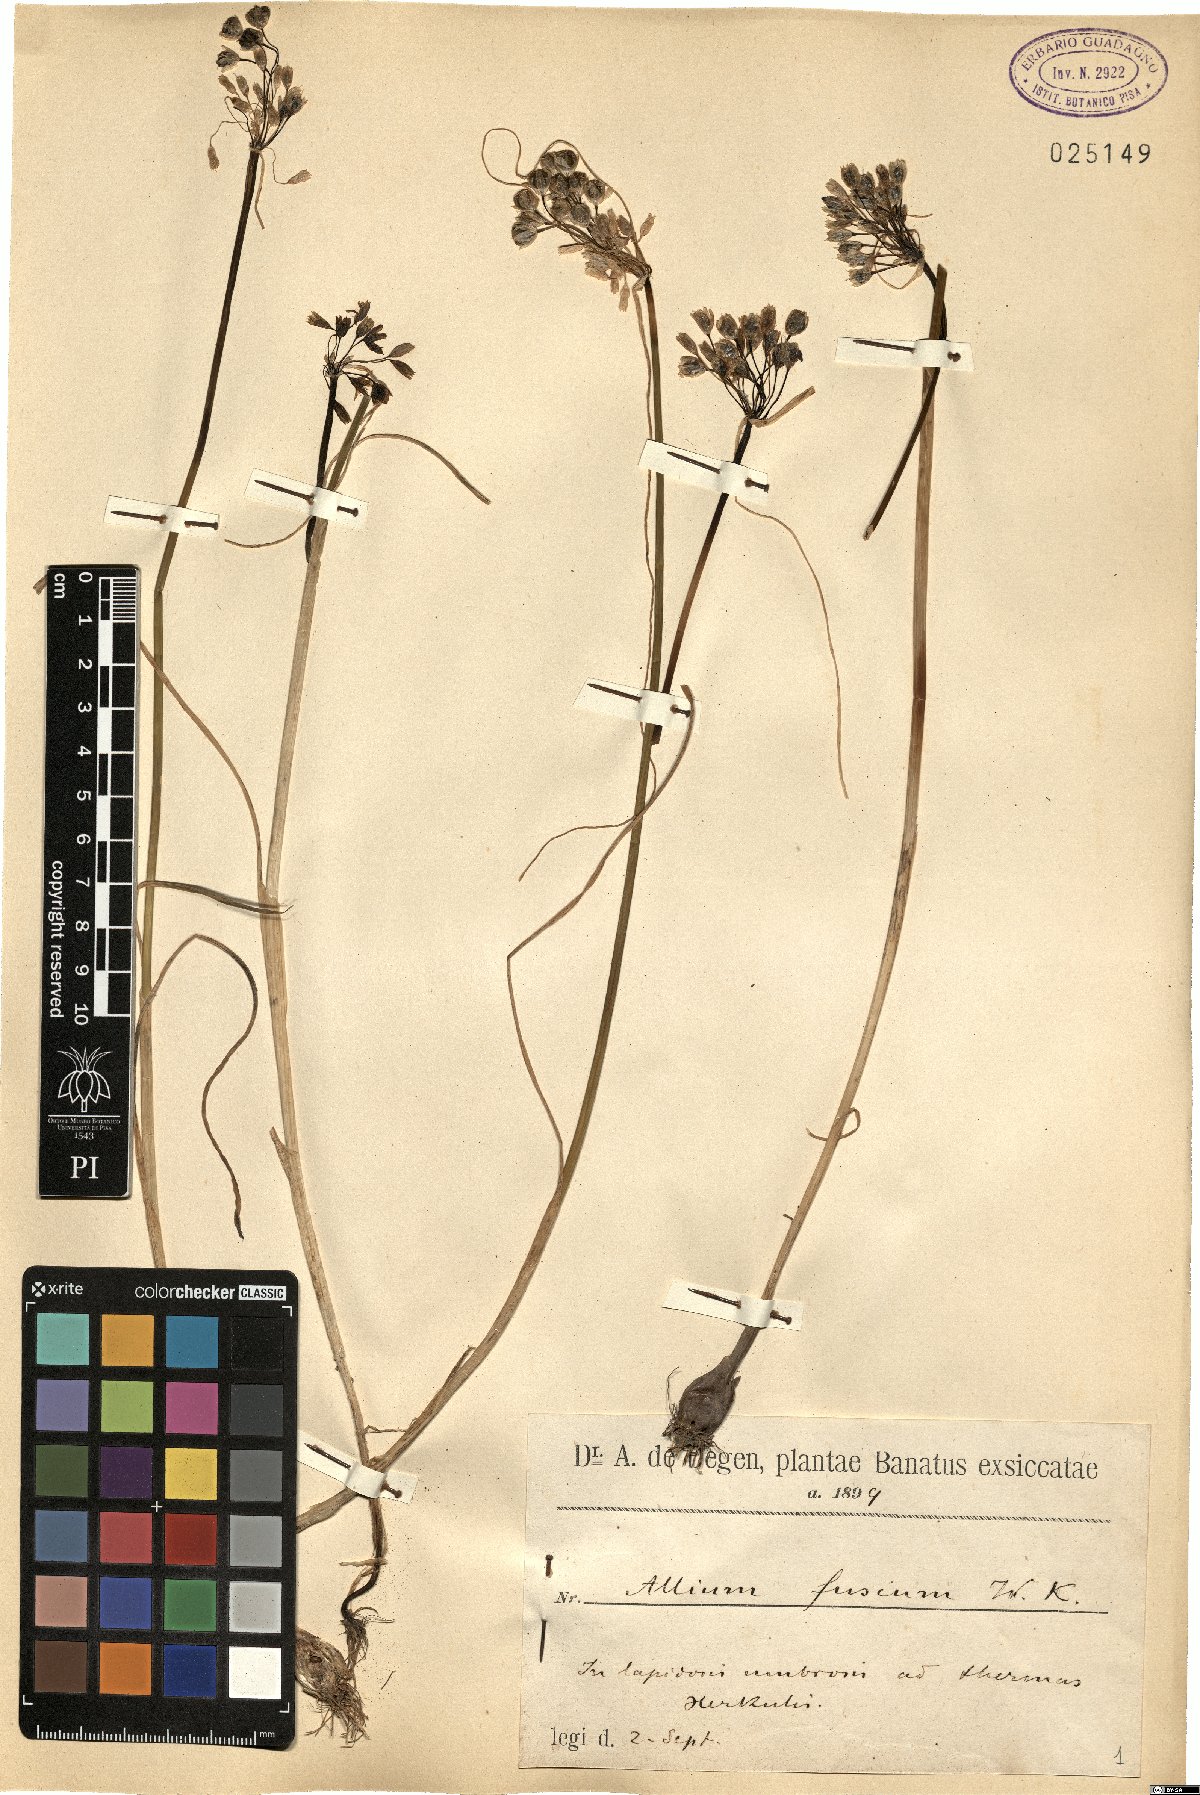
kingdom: Plantae
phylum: Tracheophyta
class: Liliopsida
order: Asparagales
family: Amaryllidaceae
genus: Allium
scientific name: Allium fuscum
